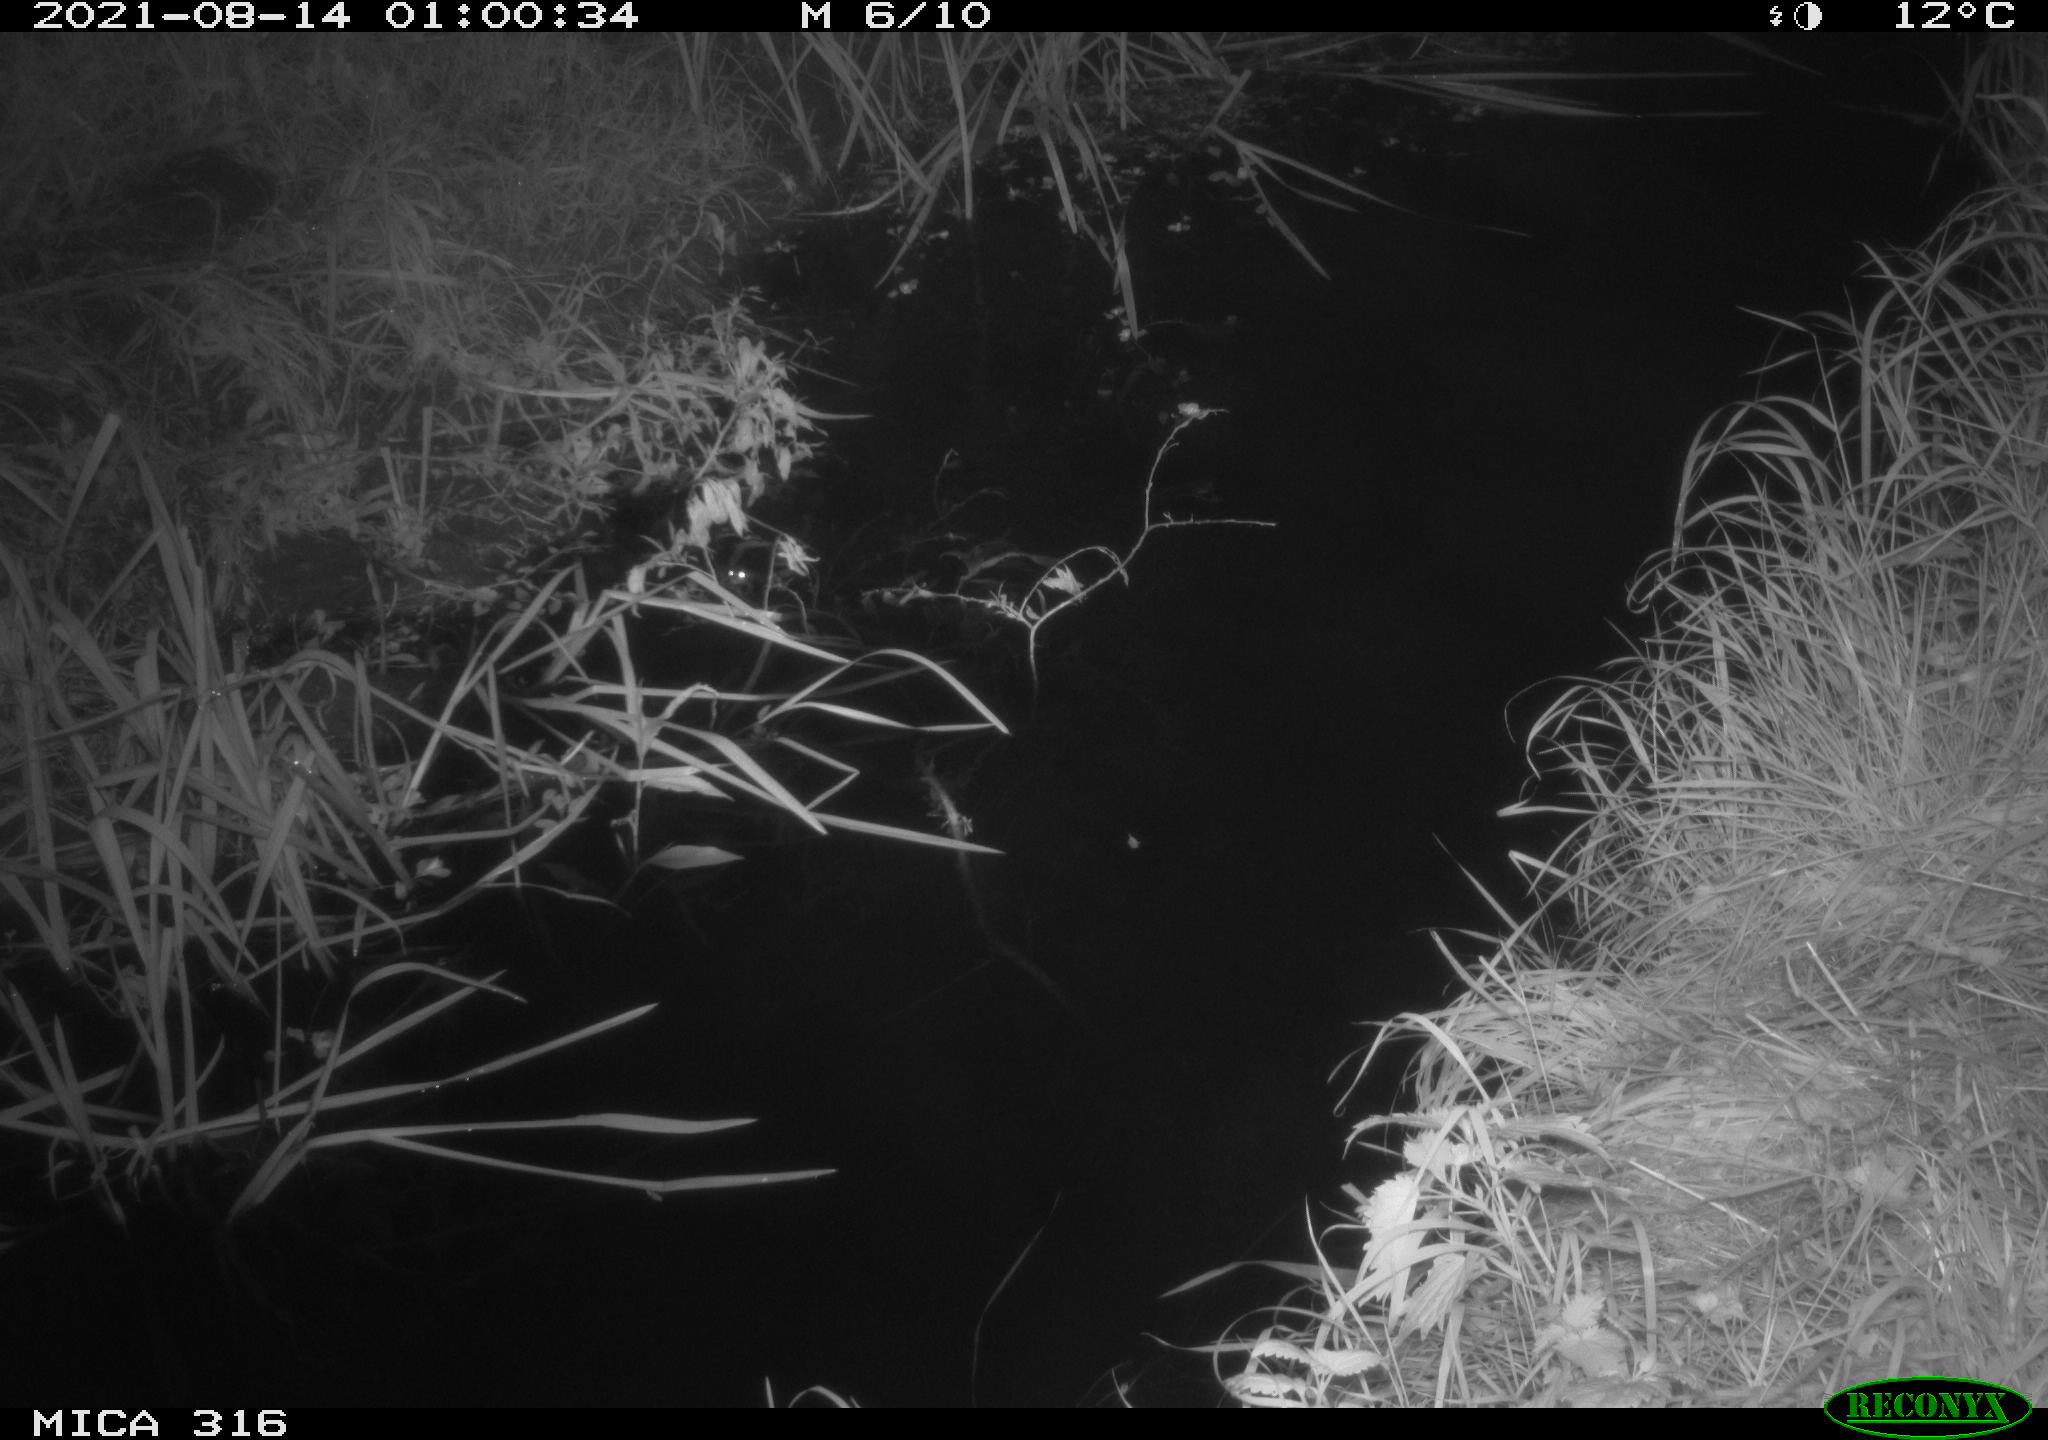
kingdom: Animalia
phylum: Chordata
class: Mammalia
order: Rodentia
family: Muridae
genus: Rattus
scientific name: Rattus norvegicus
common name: Brown rat
